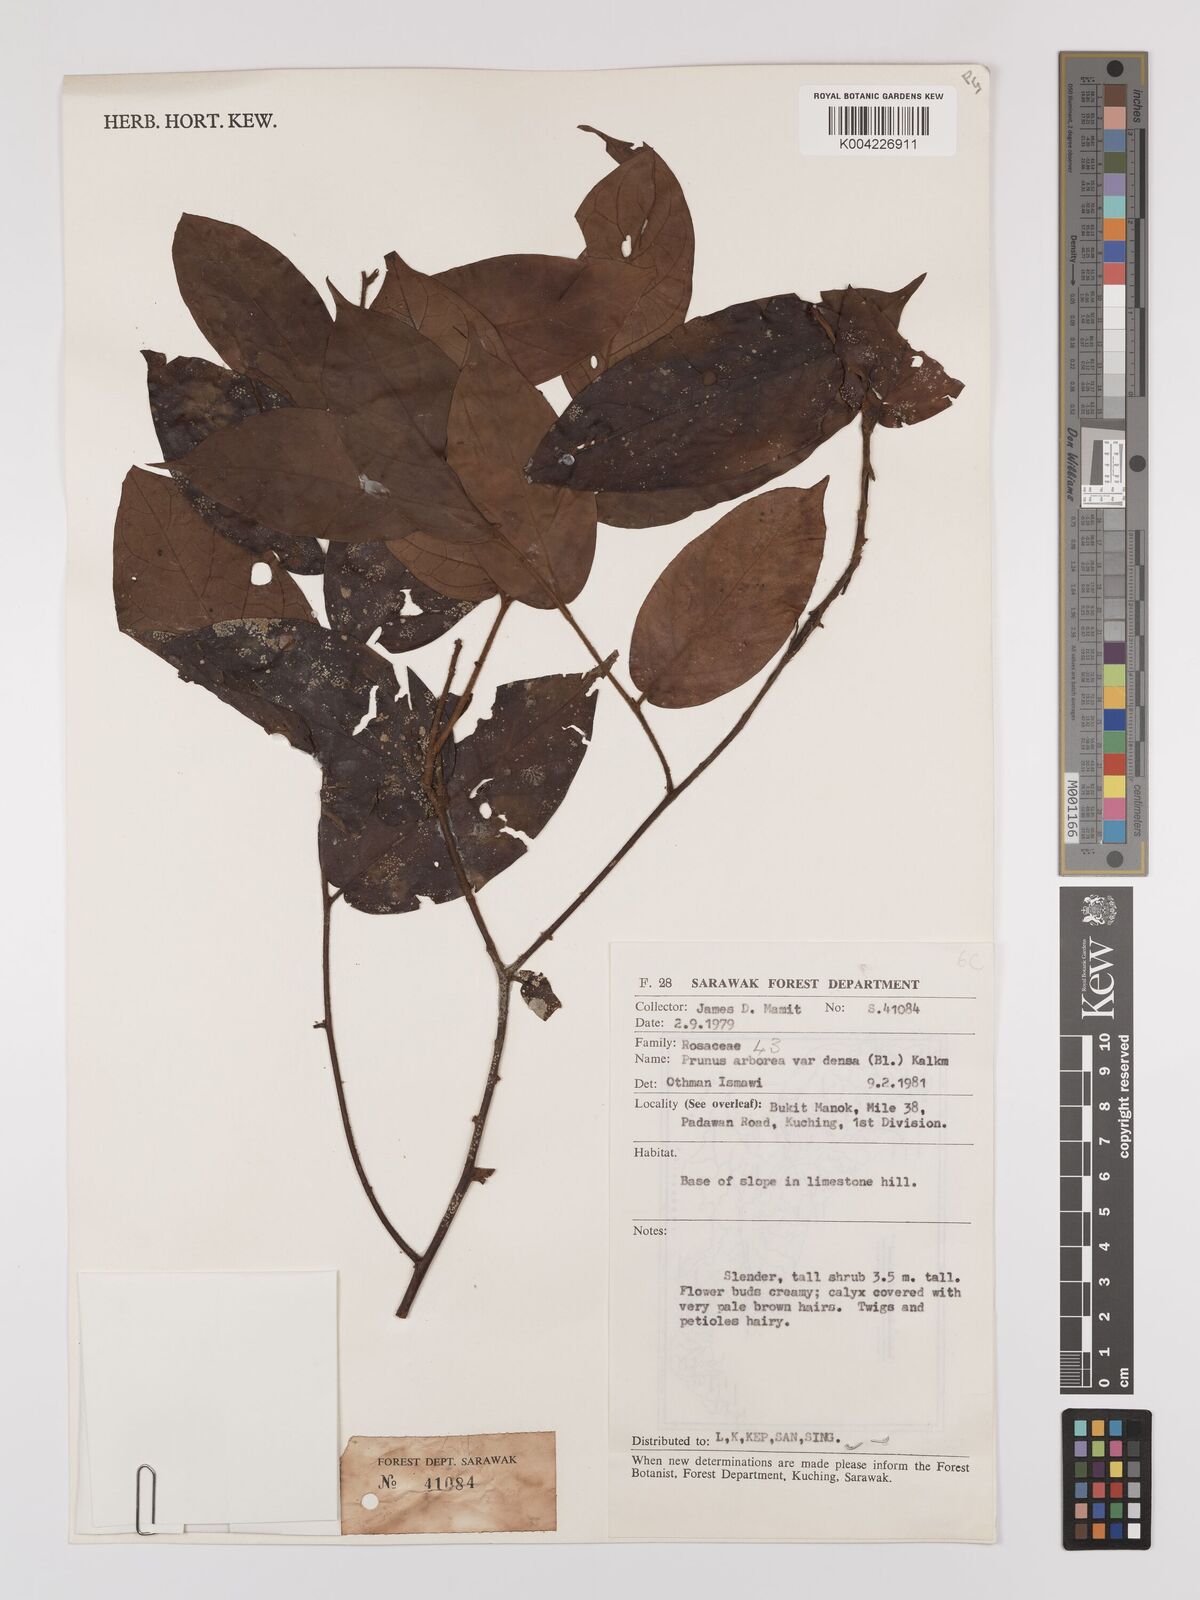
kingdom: Plantae
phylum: Tracheophyta
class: Magnoliopsida
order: Rosales
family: Rosaceae
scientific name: Rosaceae
